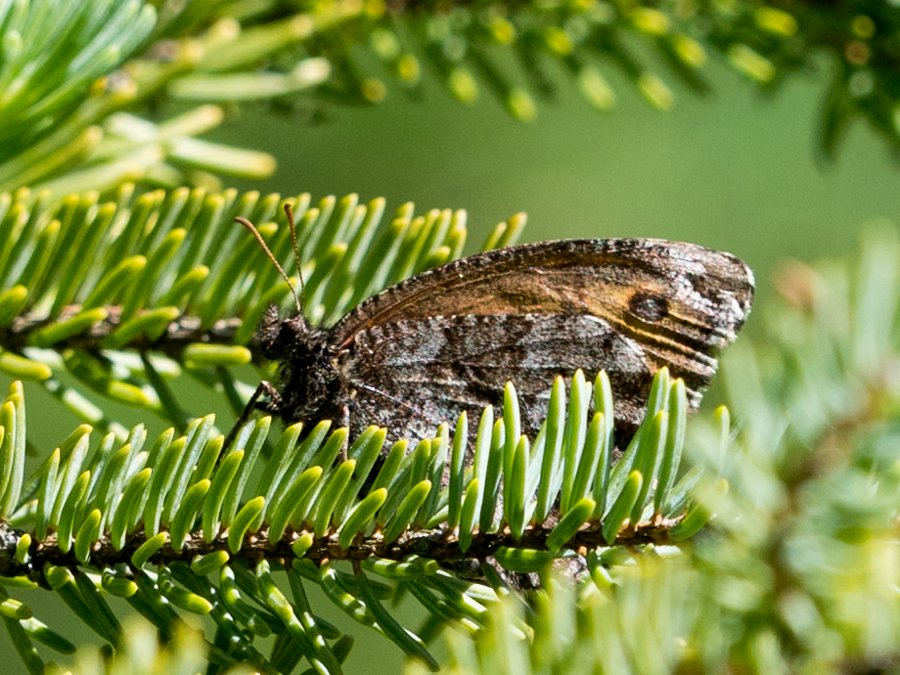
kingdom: Animalia
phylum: Arthropoda
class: Insecta
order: Lepidoptera
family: Nymphalidae
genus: Oeneis
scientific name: Oeneis jutta
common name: Jutta Arctic
